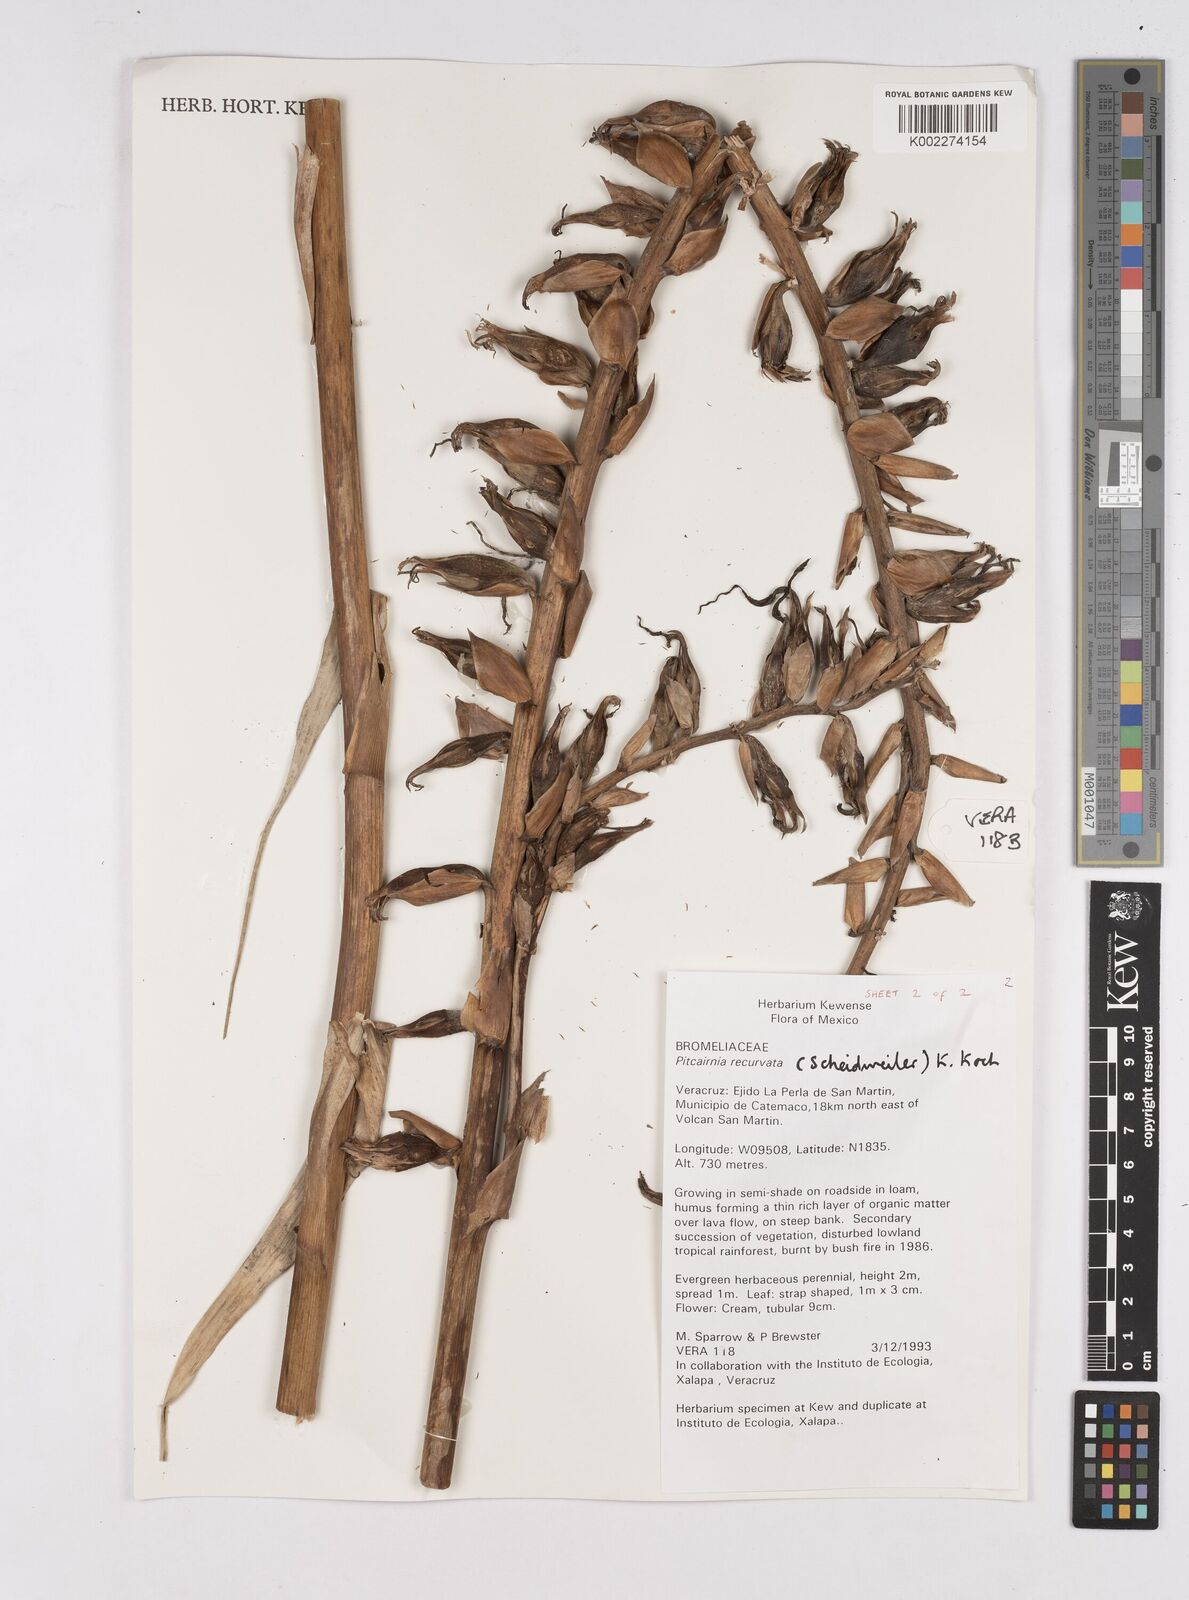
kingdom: Plantae
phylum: Tracheophyta
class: Liliopsida
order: Poales
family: Bromeliaceae
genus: Pitcairnia
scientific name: Pitcairnia recurvata
